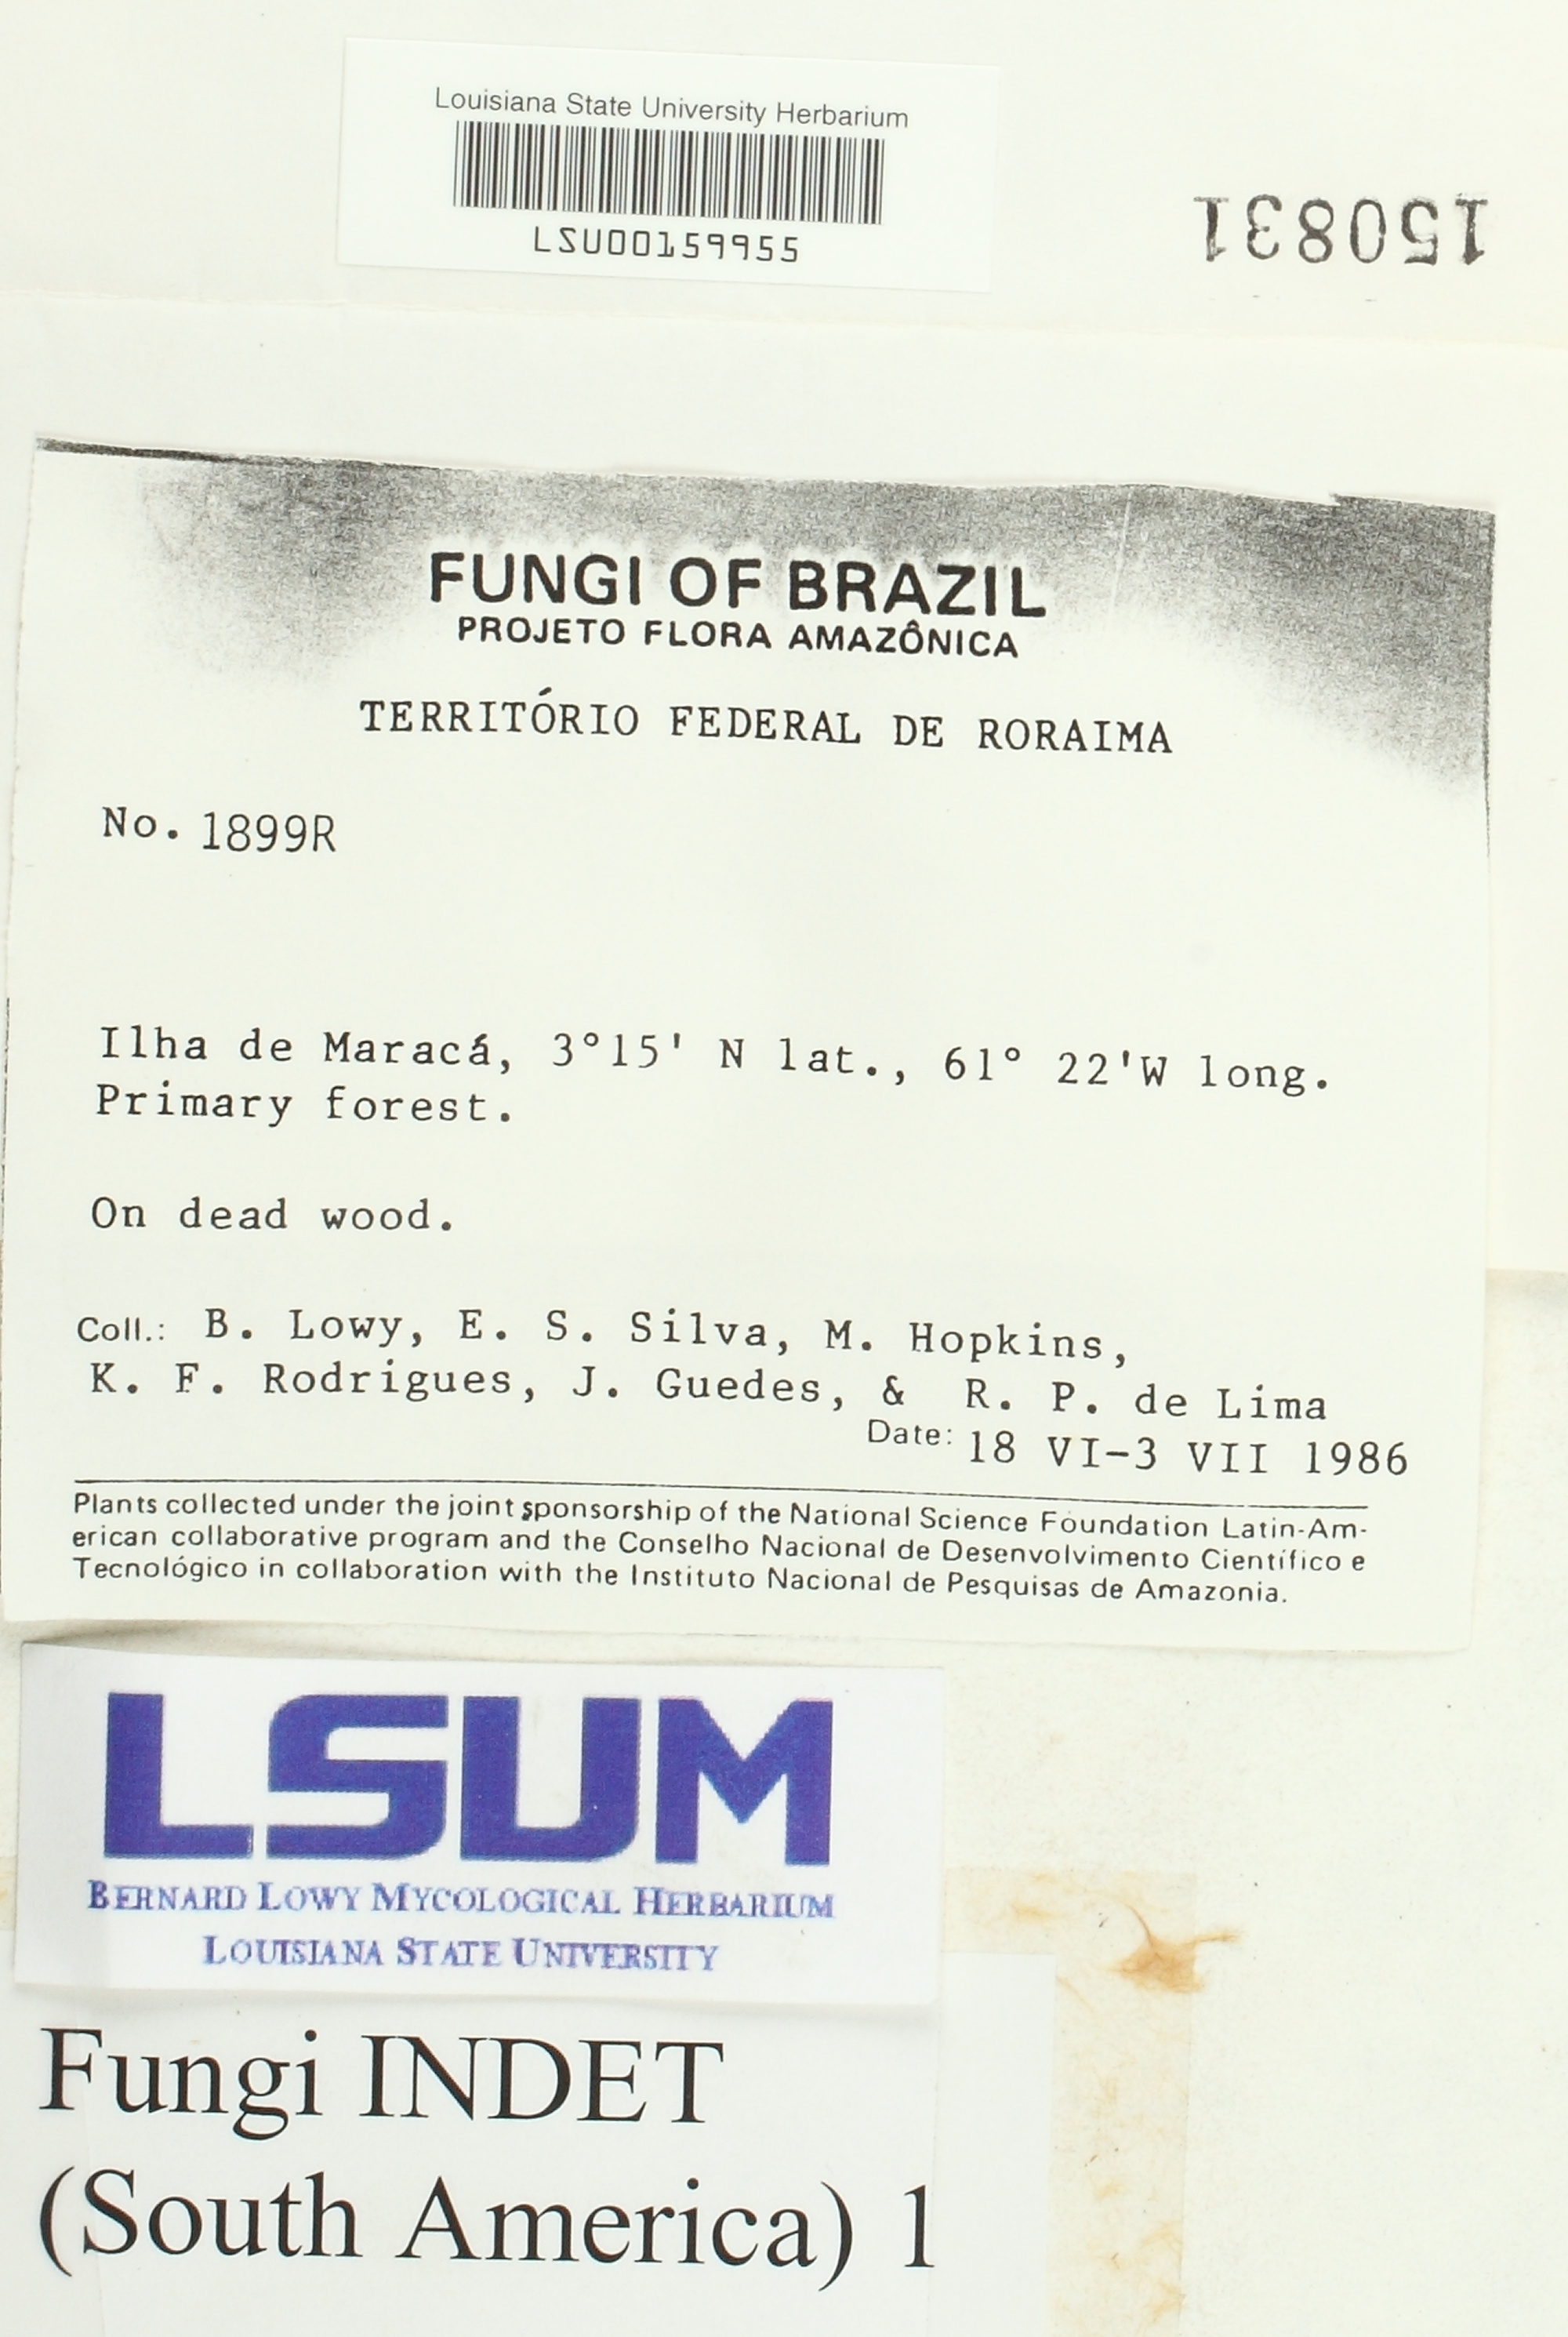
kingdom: Fungi
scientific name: Fungi
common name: Fungi
